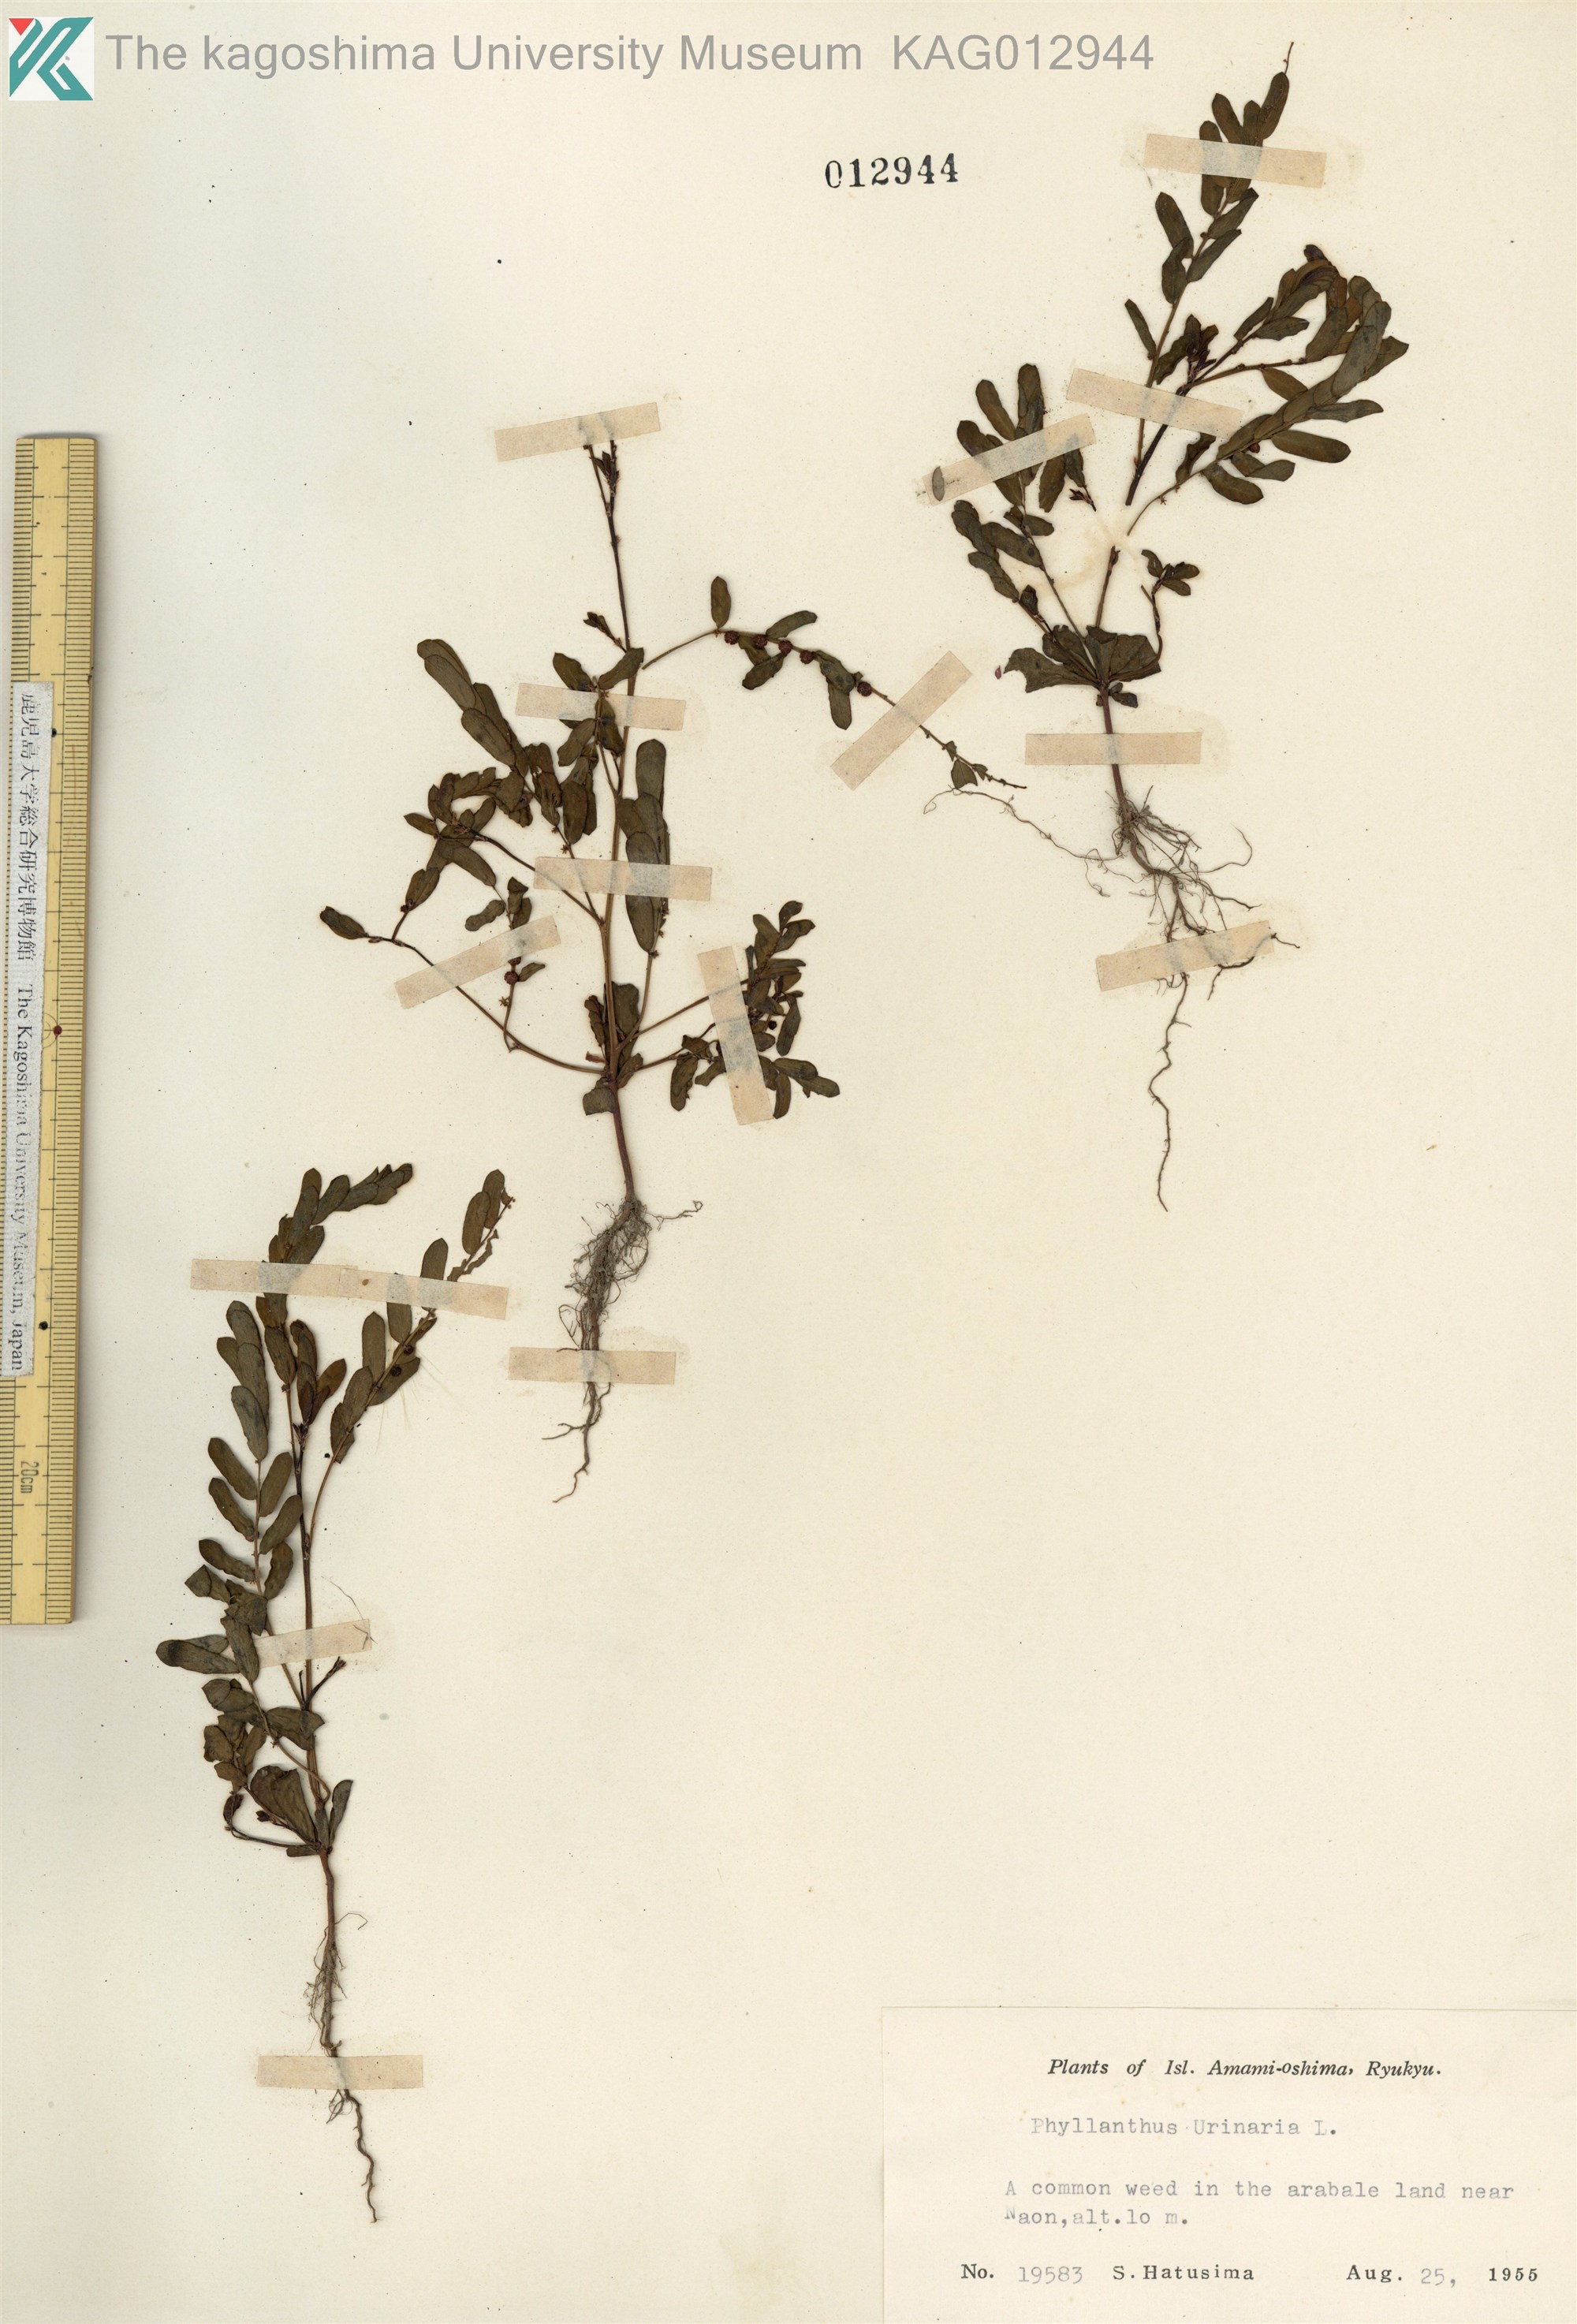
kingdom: Plantae
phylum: Tracheophyta
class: Magnoliopsida
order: Malpighiales
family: Phyllanthaceae
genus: Phyllanthus
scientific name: Phyllanthus urinaria
